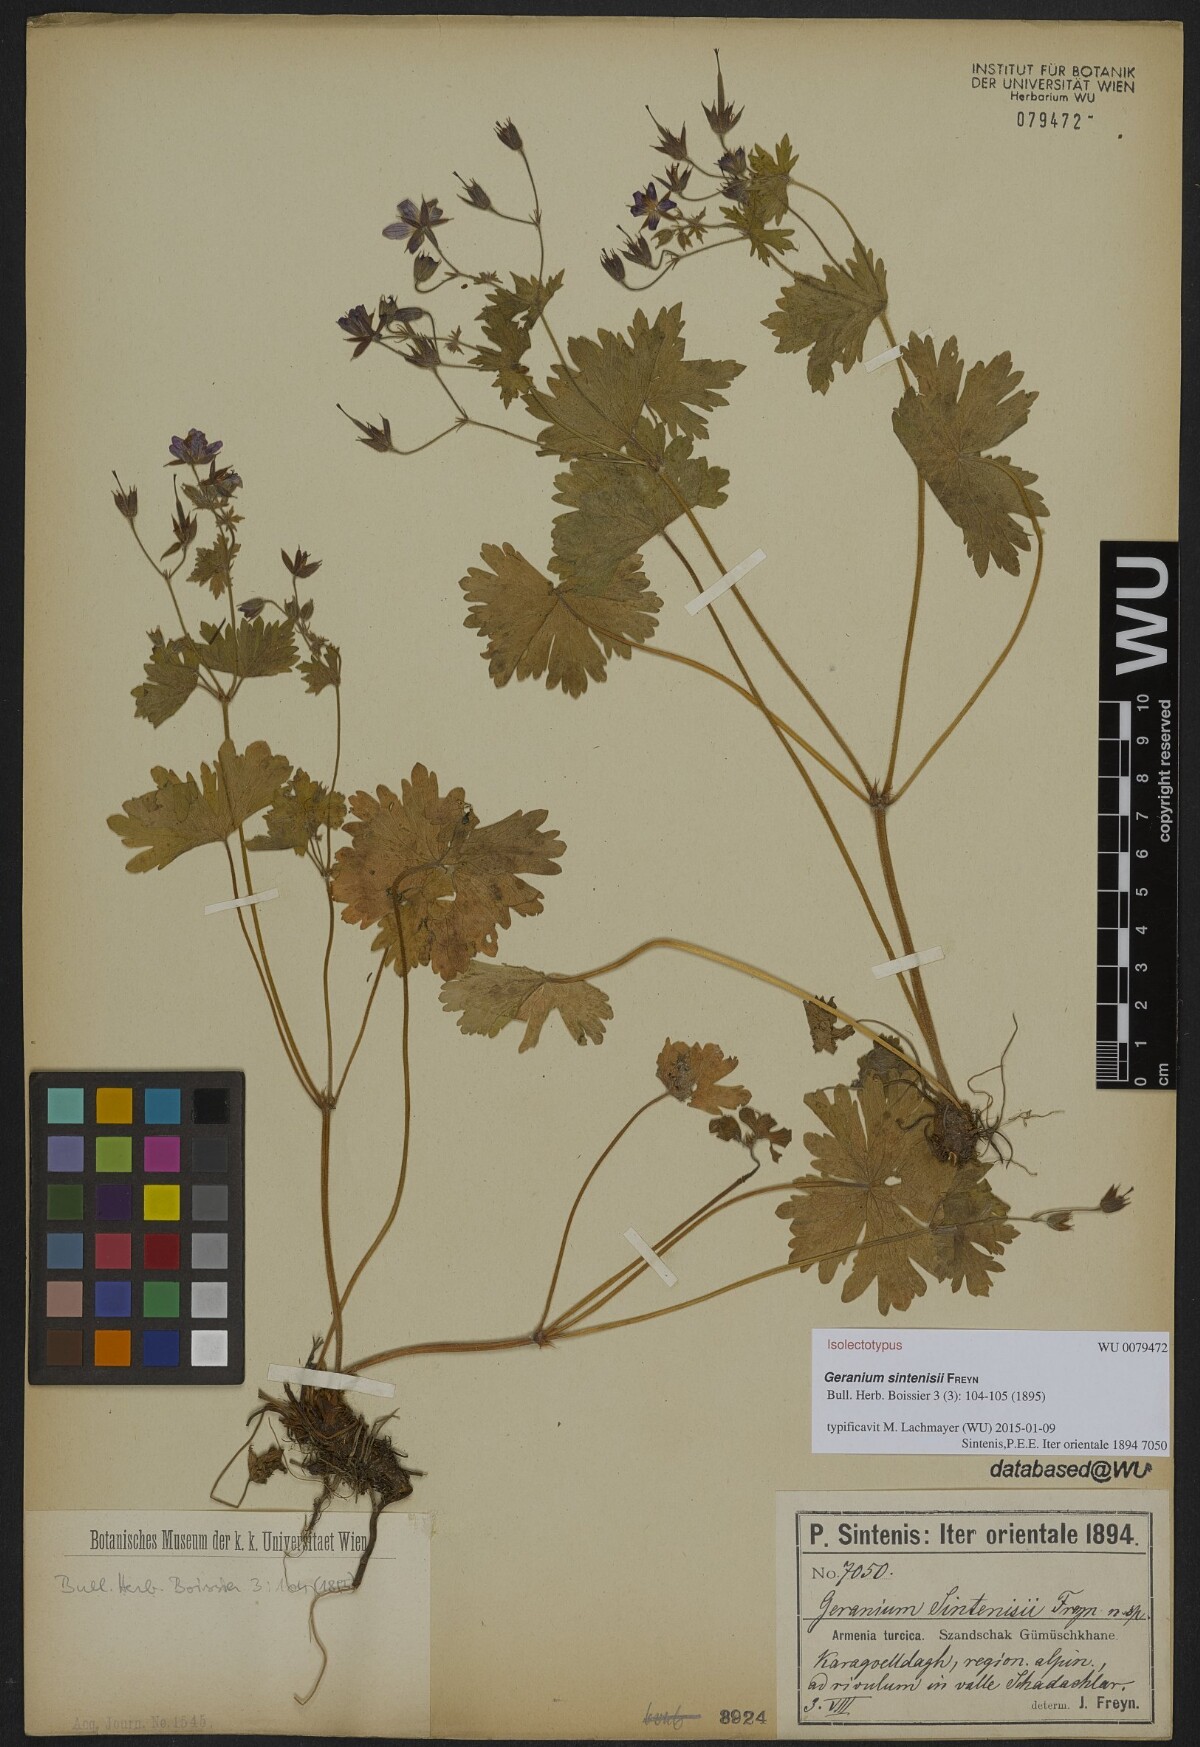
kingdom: Plantae
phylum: Tracheophyta
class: Magnoliopsida
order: Geraniales
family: Geraniaceae
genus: Geranium
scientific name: Geranium sintenisii
